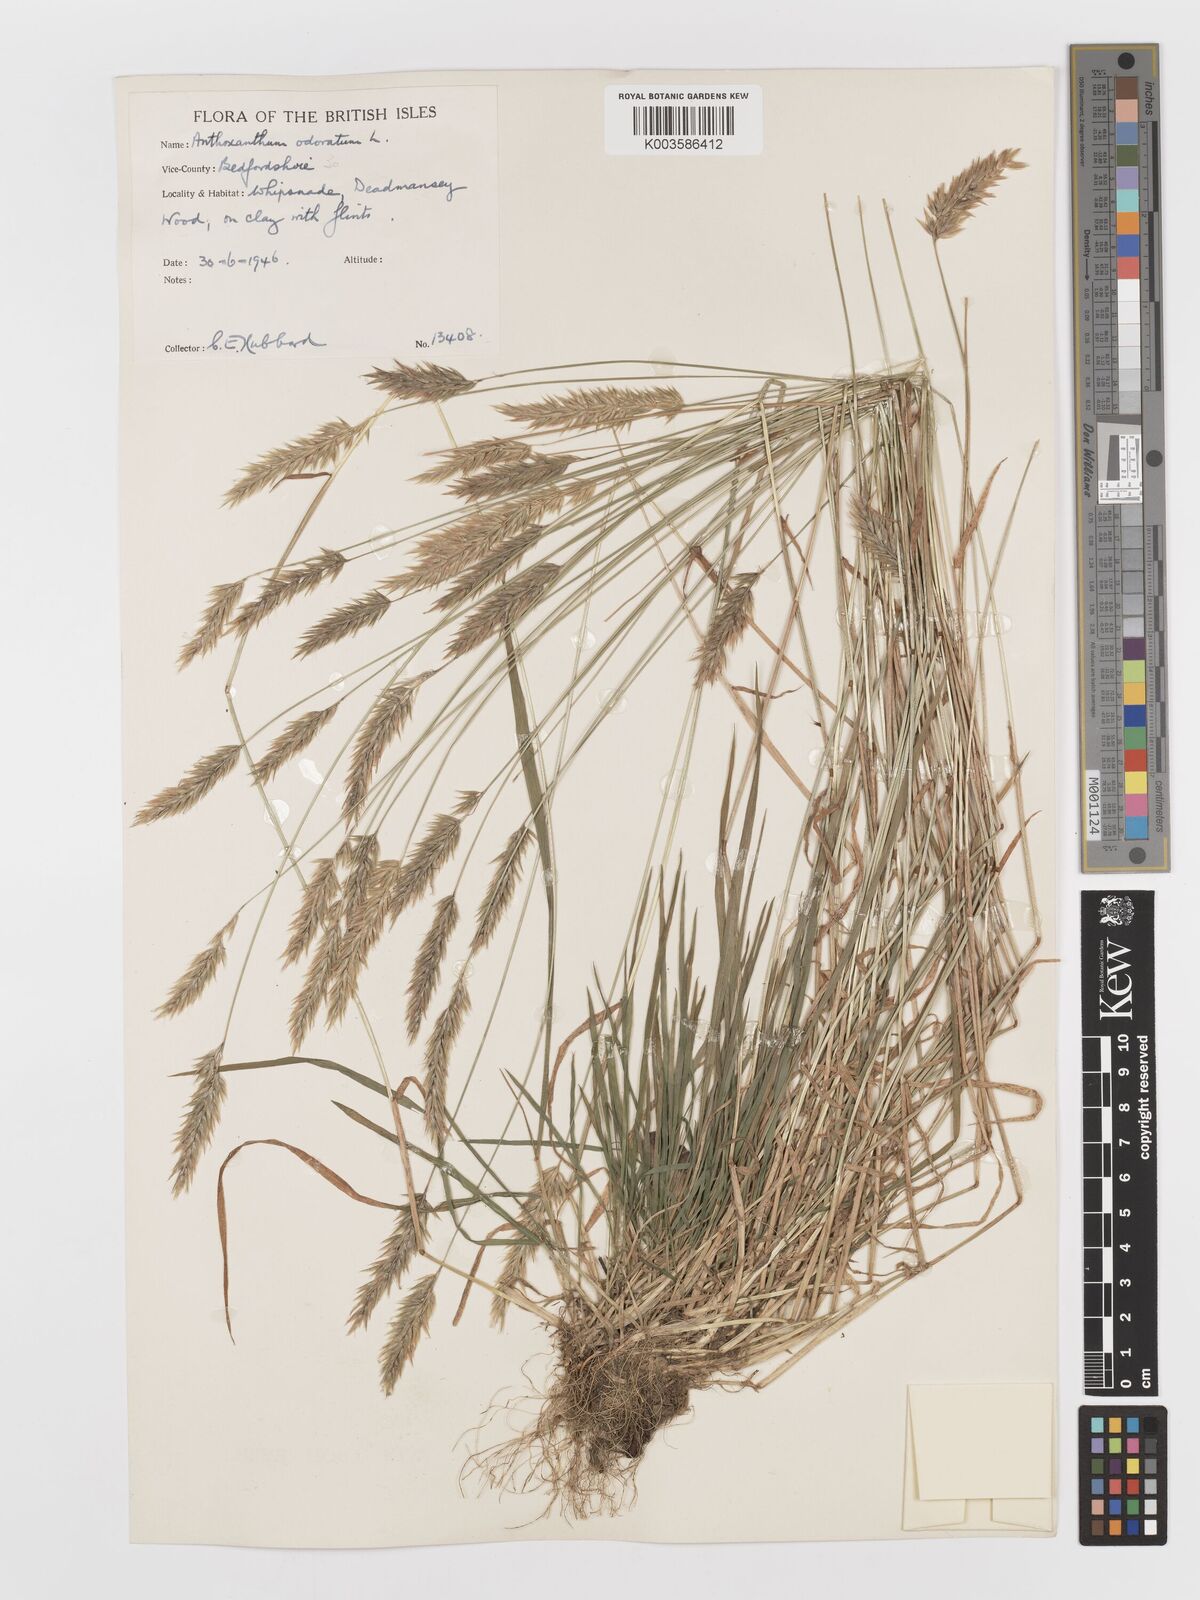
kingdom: Plantae
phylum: Tracheophyta
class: Liliopsida
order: Poales
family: Poaceae
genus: Anthoxanthum
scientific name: Anthoxanthum odoratum
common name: Sweet vernalgrass
